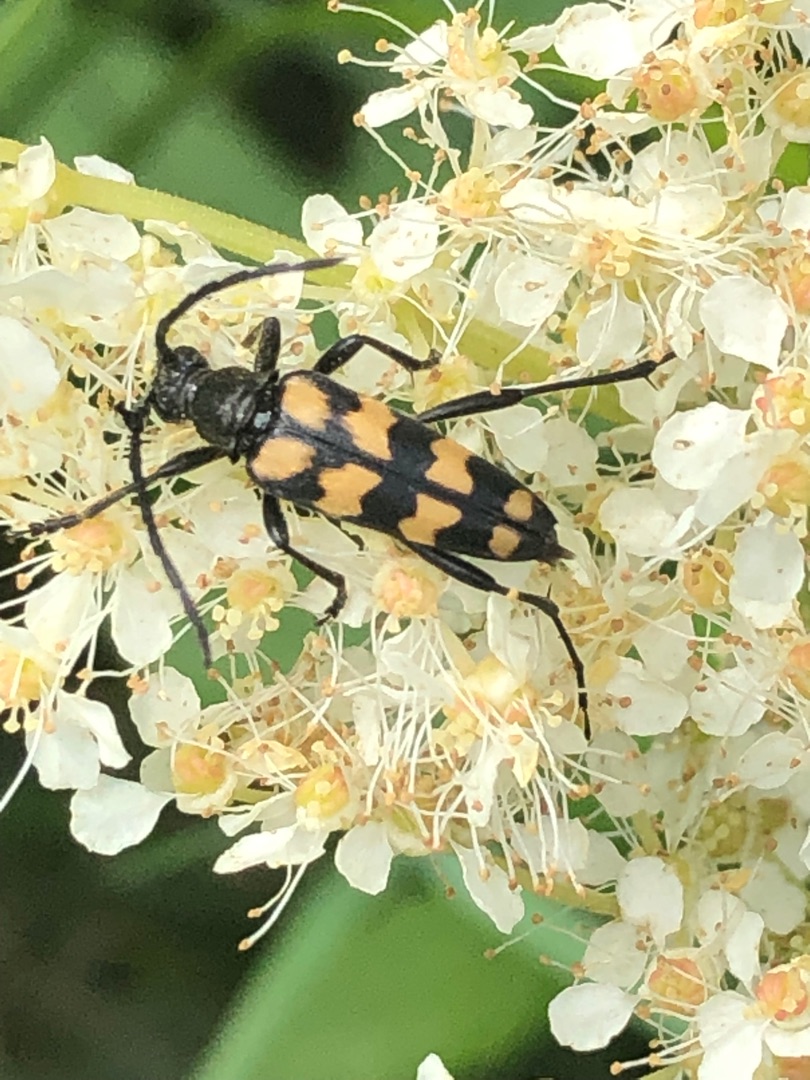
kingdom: Animalia
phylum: Arthropoda
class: Insecta
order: Coleoptera
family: Cerambycidae
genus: Leptura
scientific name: Leptura quadrifasciata
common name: Firebåndet blomsterbuk
